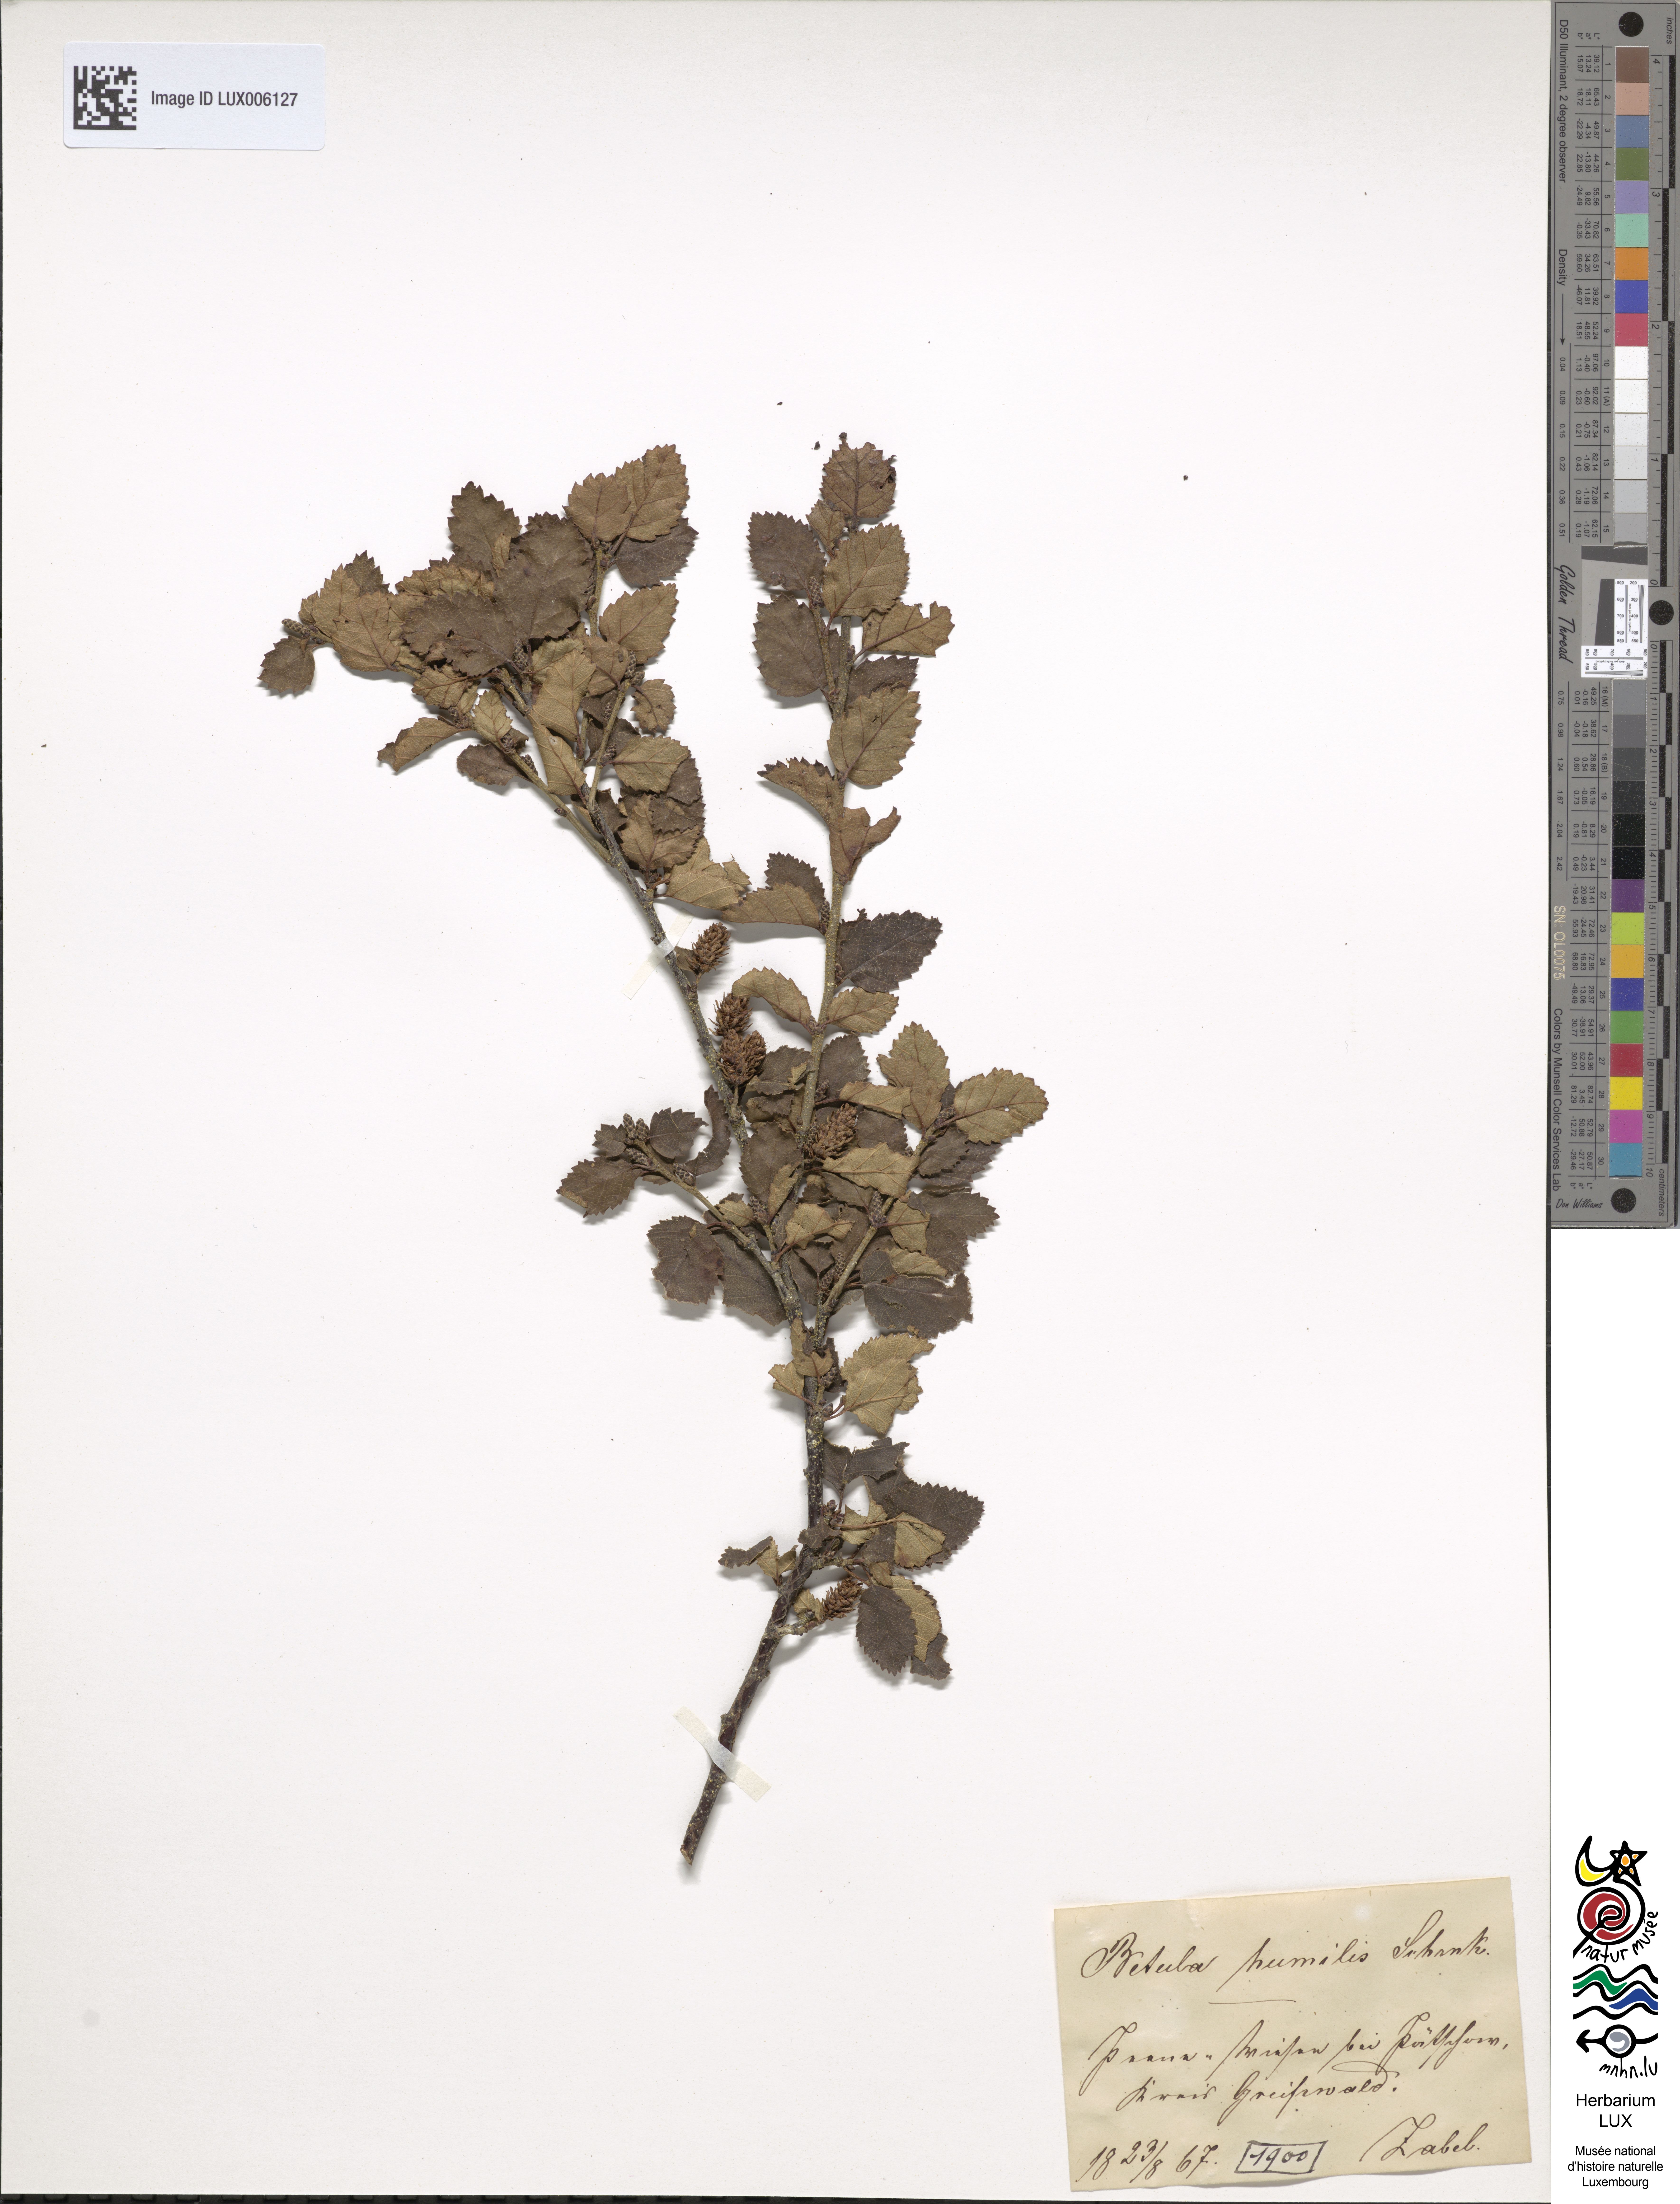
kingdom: Plantae
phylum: Tracheophyta
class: Magnoliopsida
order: Fagales
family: Betulaceae
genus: Betula
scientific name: Betula humilis
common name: Shrubby birch
